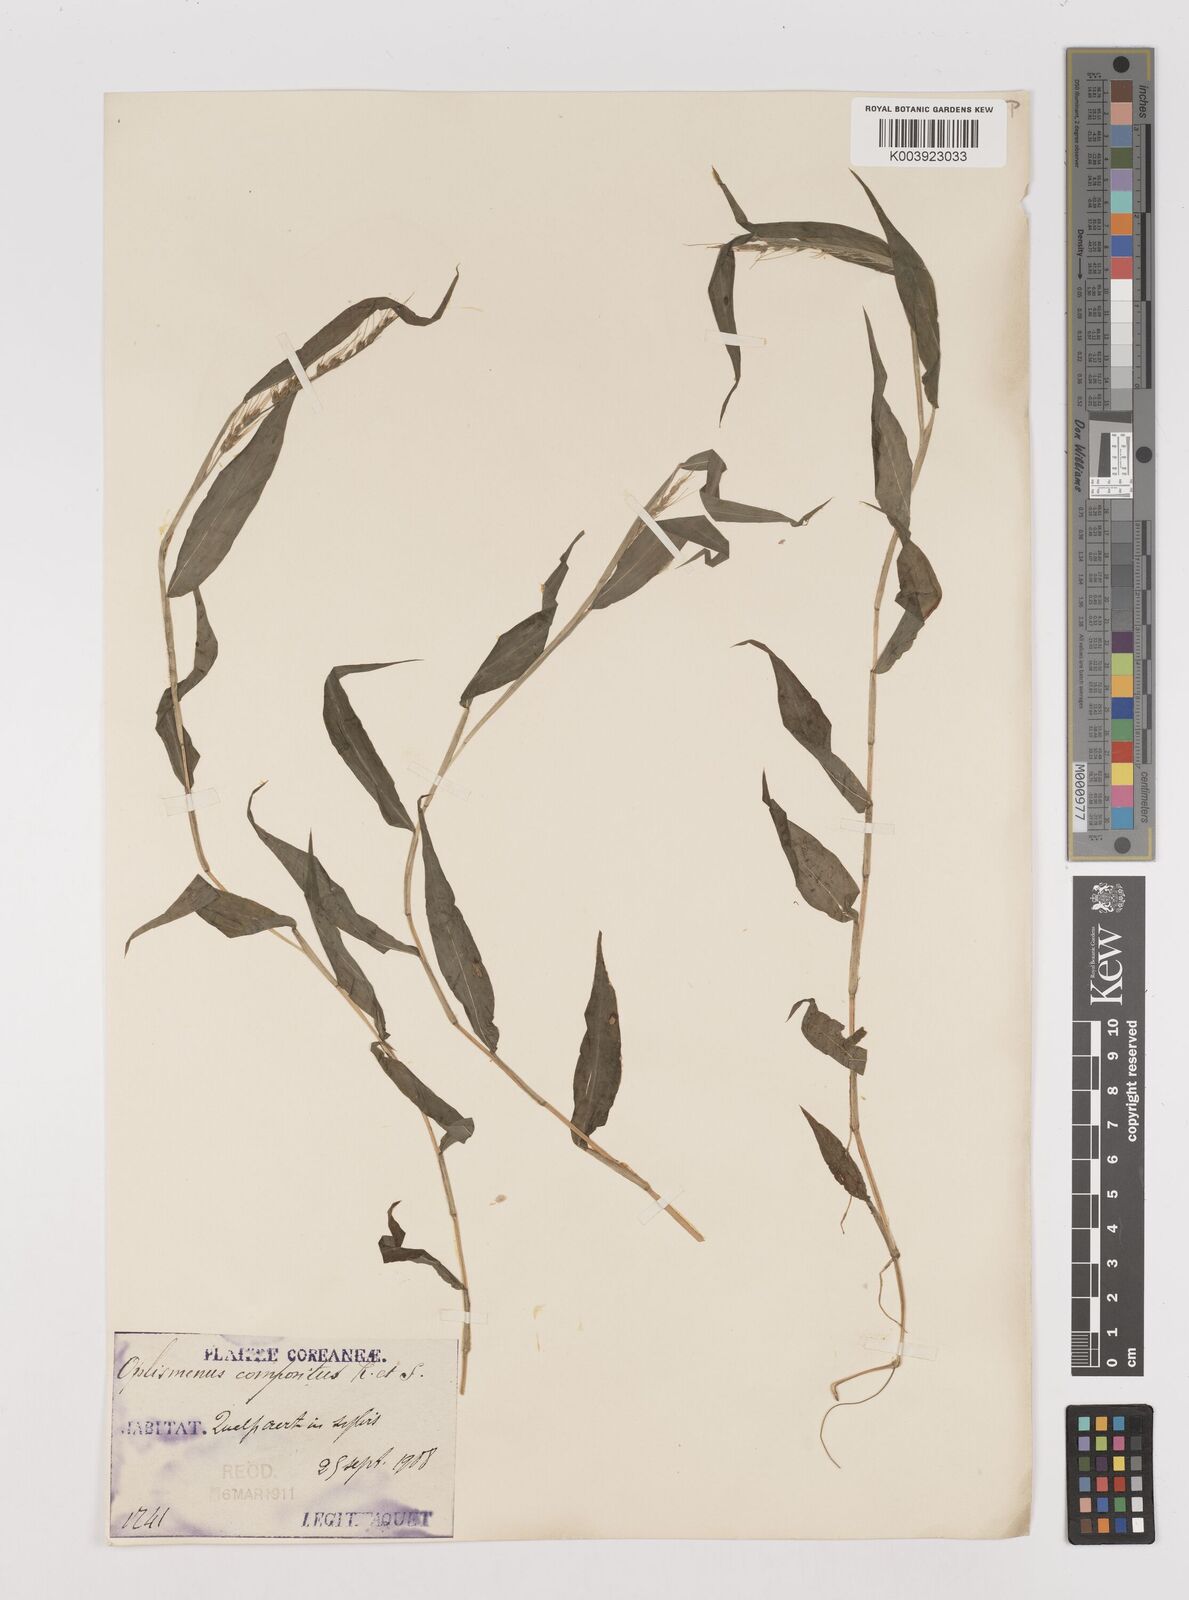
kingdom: Plantae
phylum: Tracheophyta
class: Liliopsida
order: Poales
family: Poaceae
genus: Oplismenus
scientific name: Oplismenus compositus
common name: Running mountain grass
